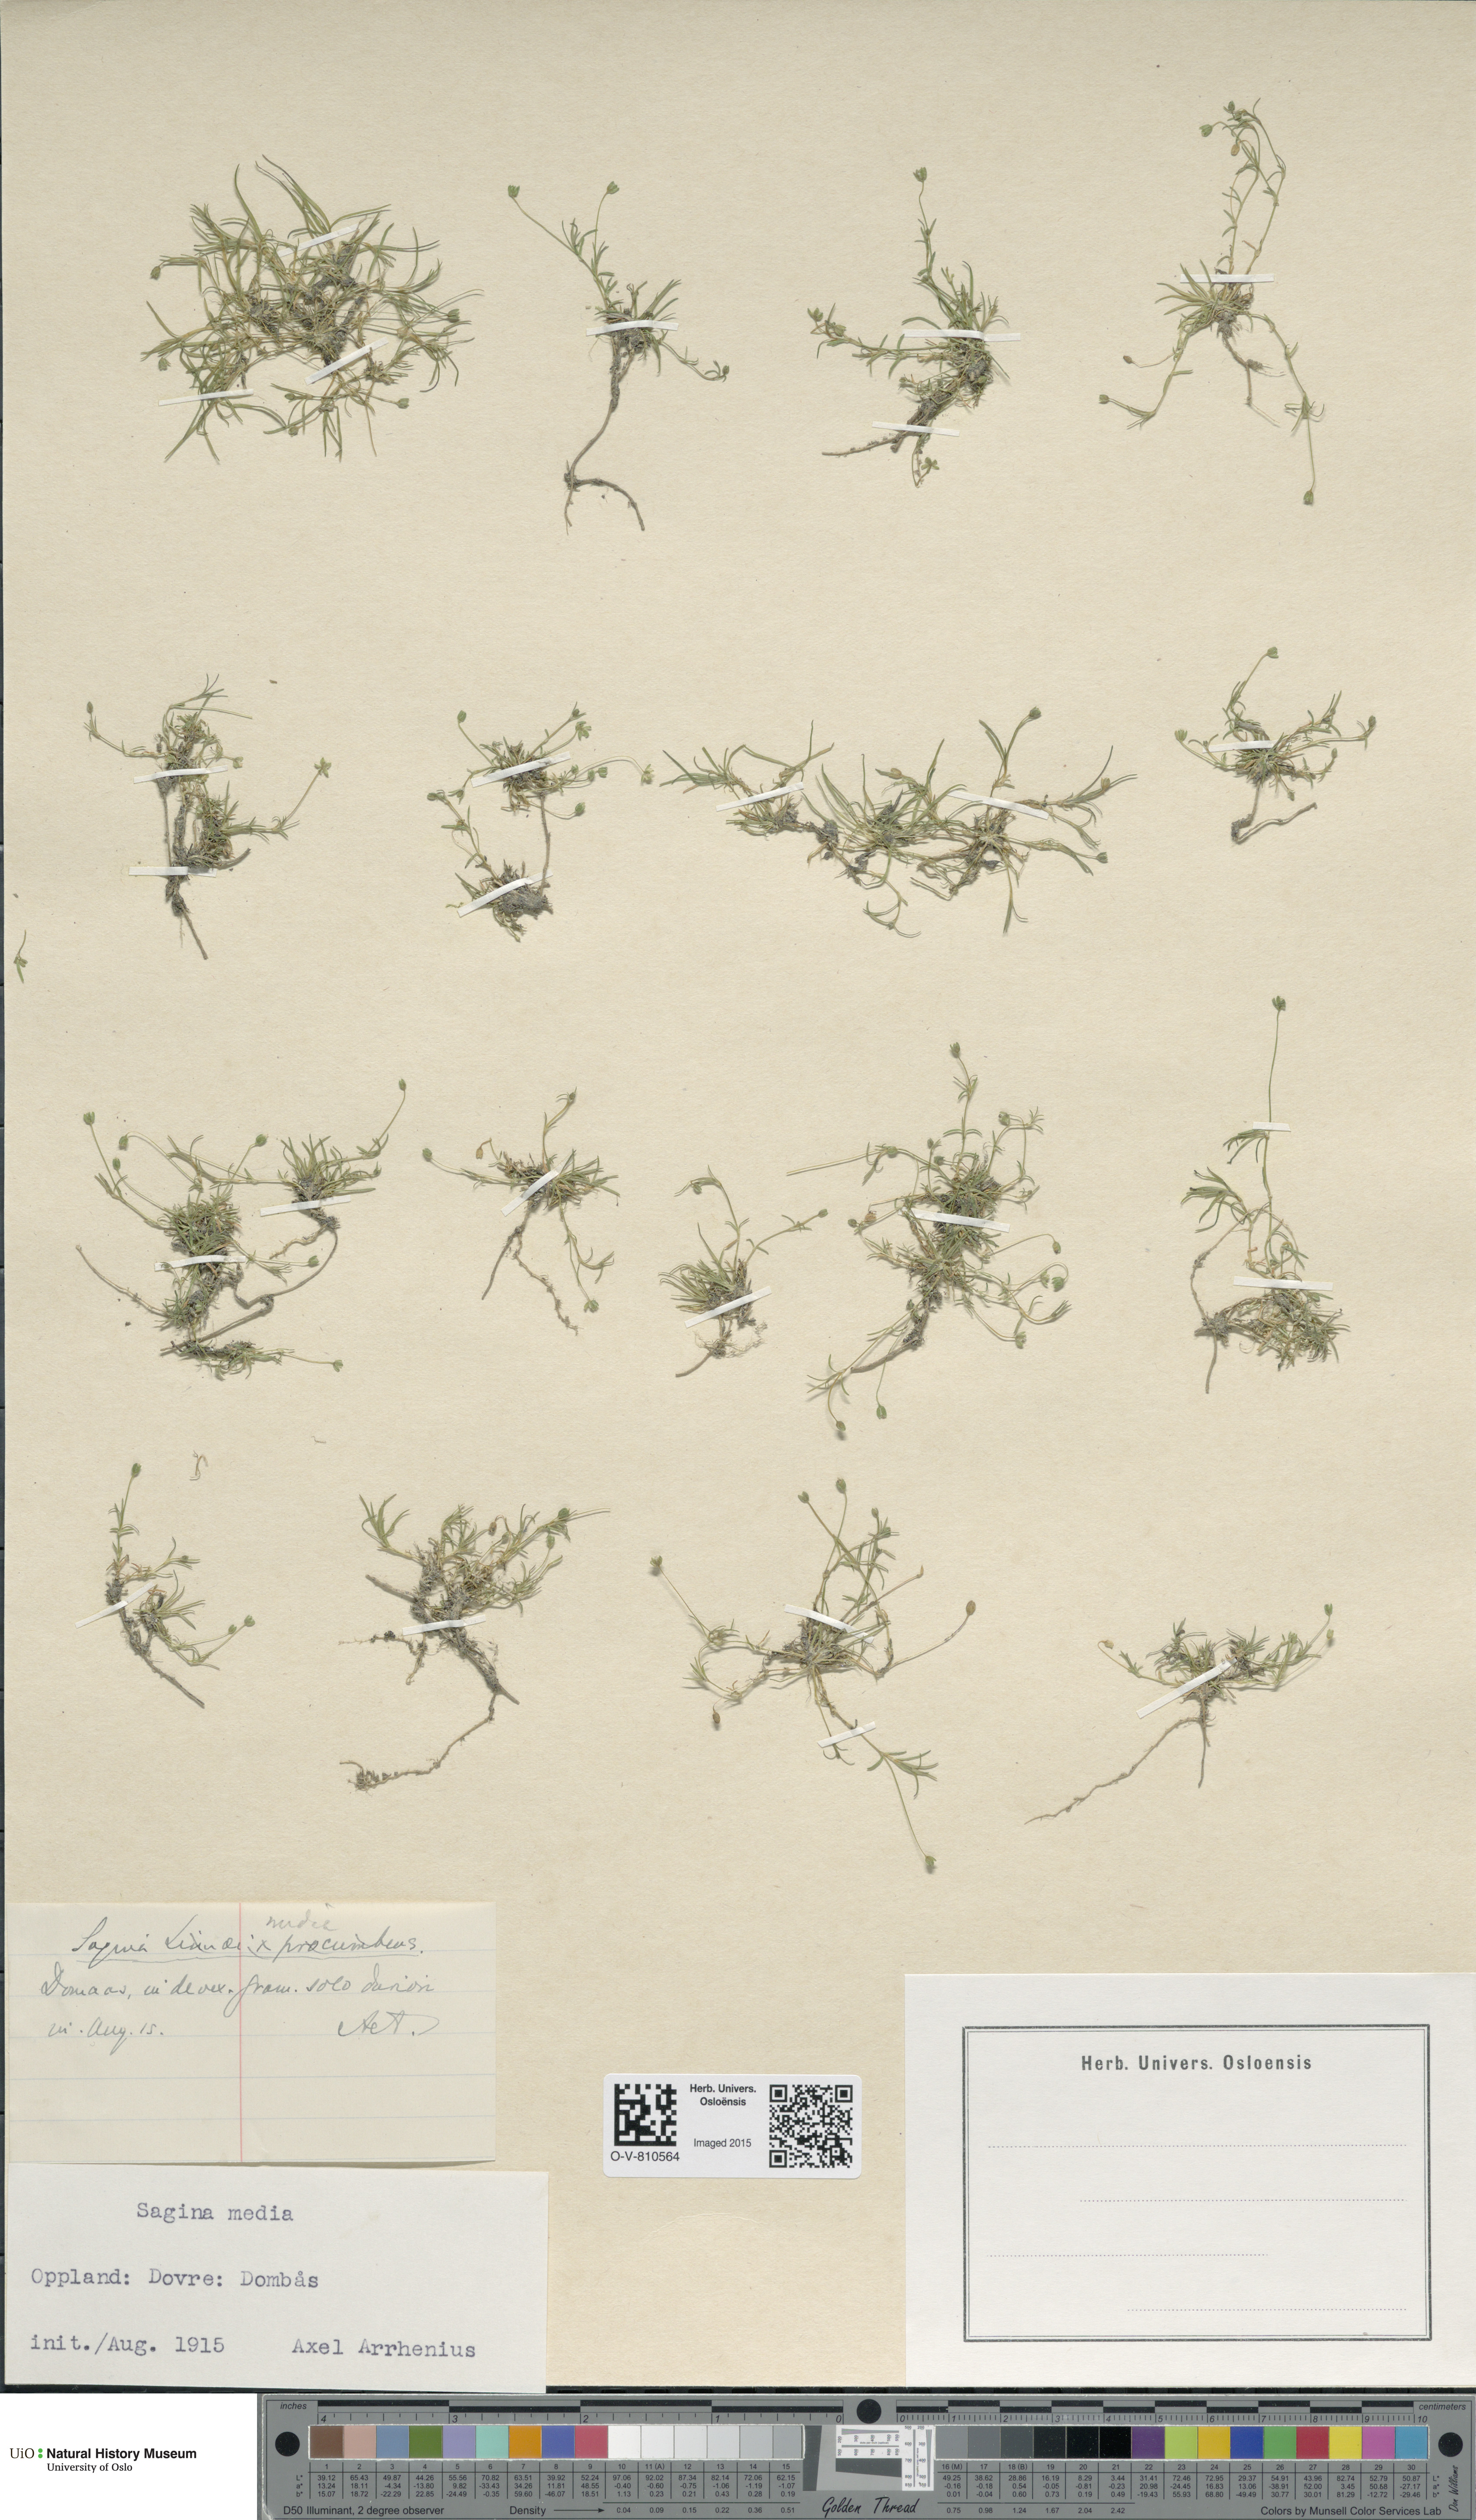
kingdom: Plantae
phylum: Tracheophyta
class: Magnoliopsida
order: Caryophyllales
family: Caryophyllaceae
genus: Sagina
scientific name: Sagina media
